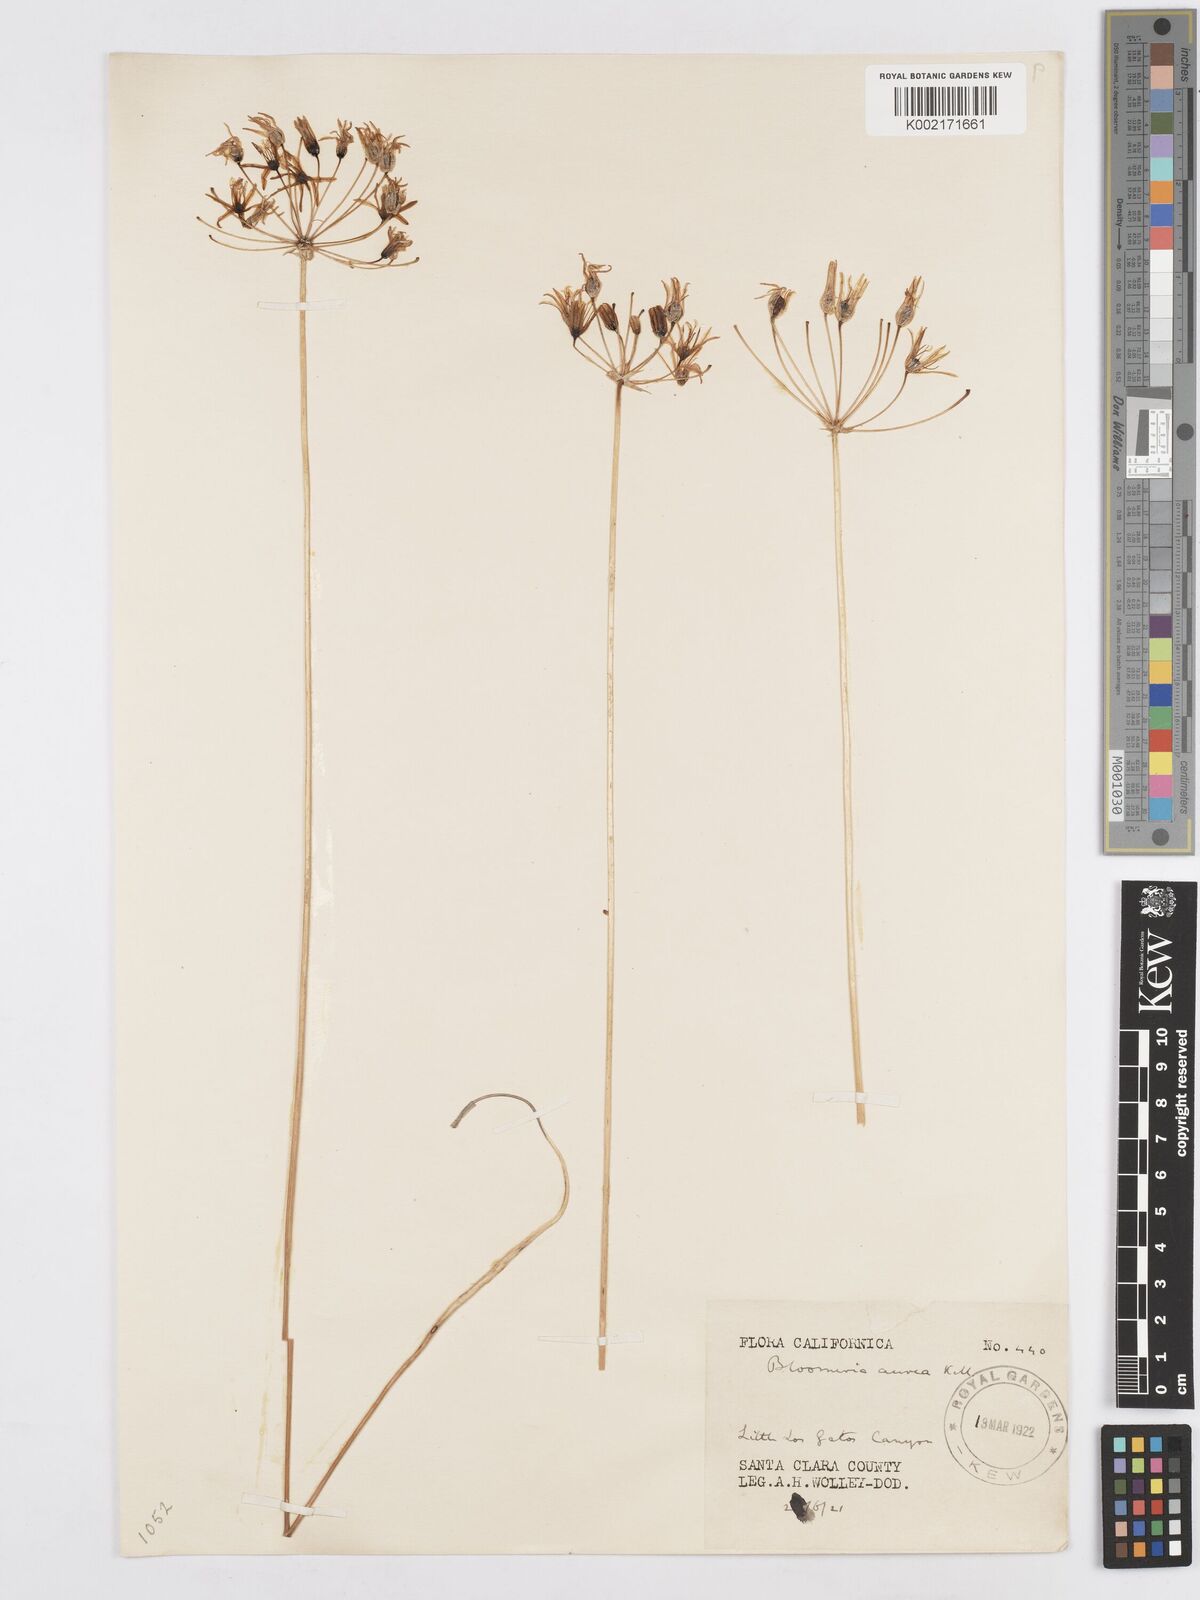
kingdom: Plantae
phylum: Tracheophyta
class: Liliopsida
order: Asparagales
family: Asparagaceae
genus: Bloomeria
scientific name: Bloomeria crocea
